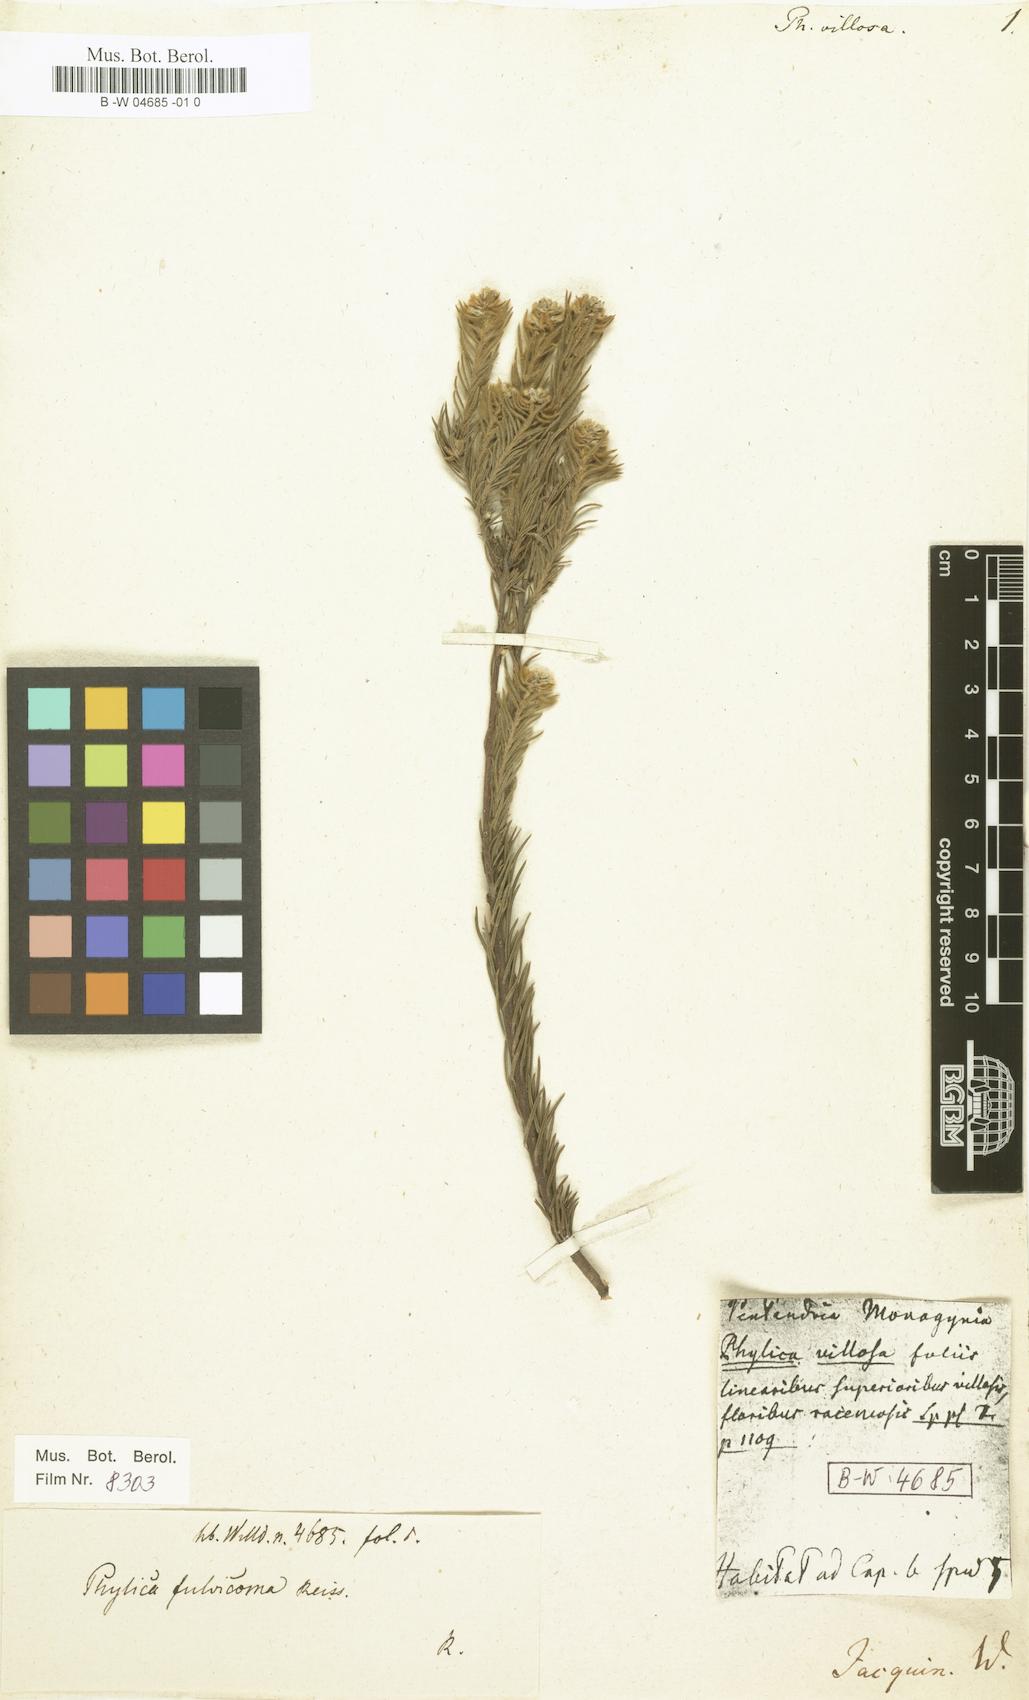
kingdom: Plantae
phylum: Tracheophyta
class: Magnoliopsida
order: Rosales
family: Rhamnaceae
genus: Phylica
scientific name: Phylica villosa
